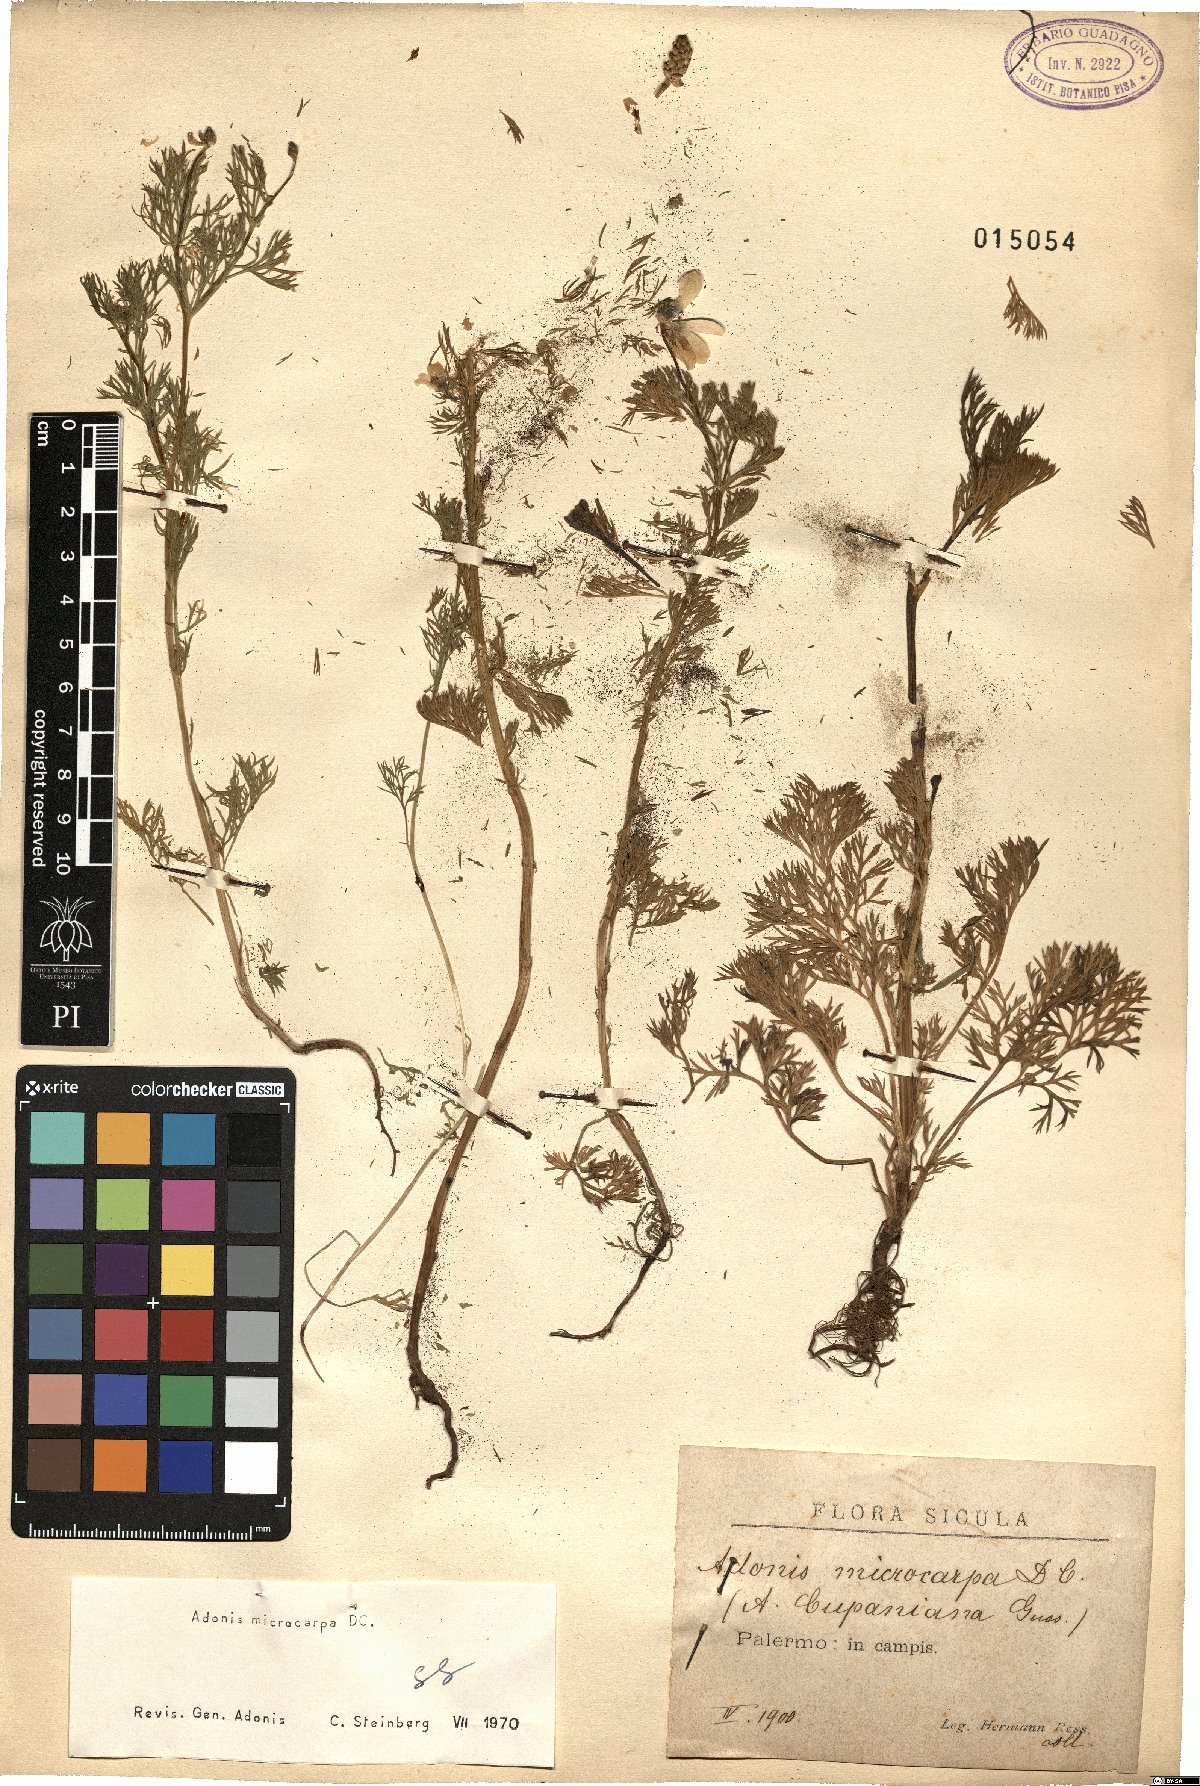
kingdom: Plantae
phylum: Tracheophyta
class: Magnoliopsida
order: Ranunculales
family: Ranunculaceae
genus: Adonis
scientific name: Adonis microcarpa
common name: Pheasant's-eye
